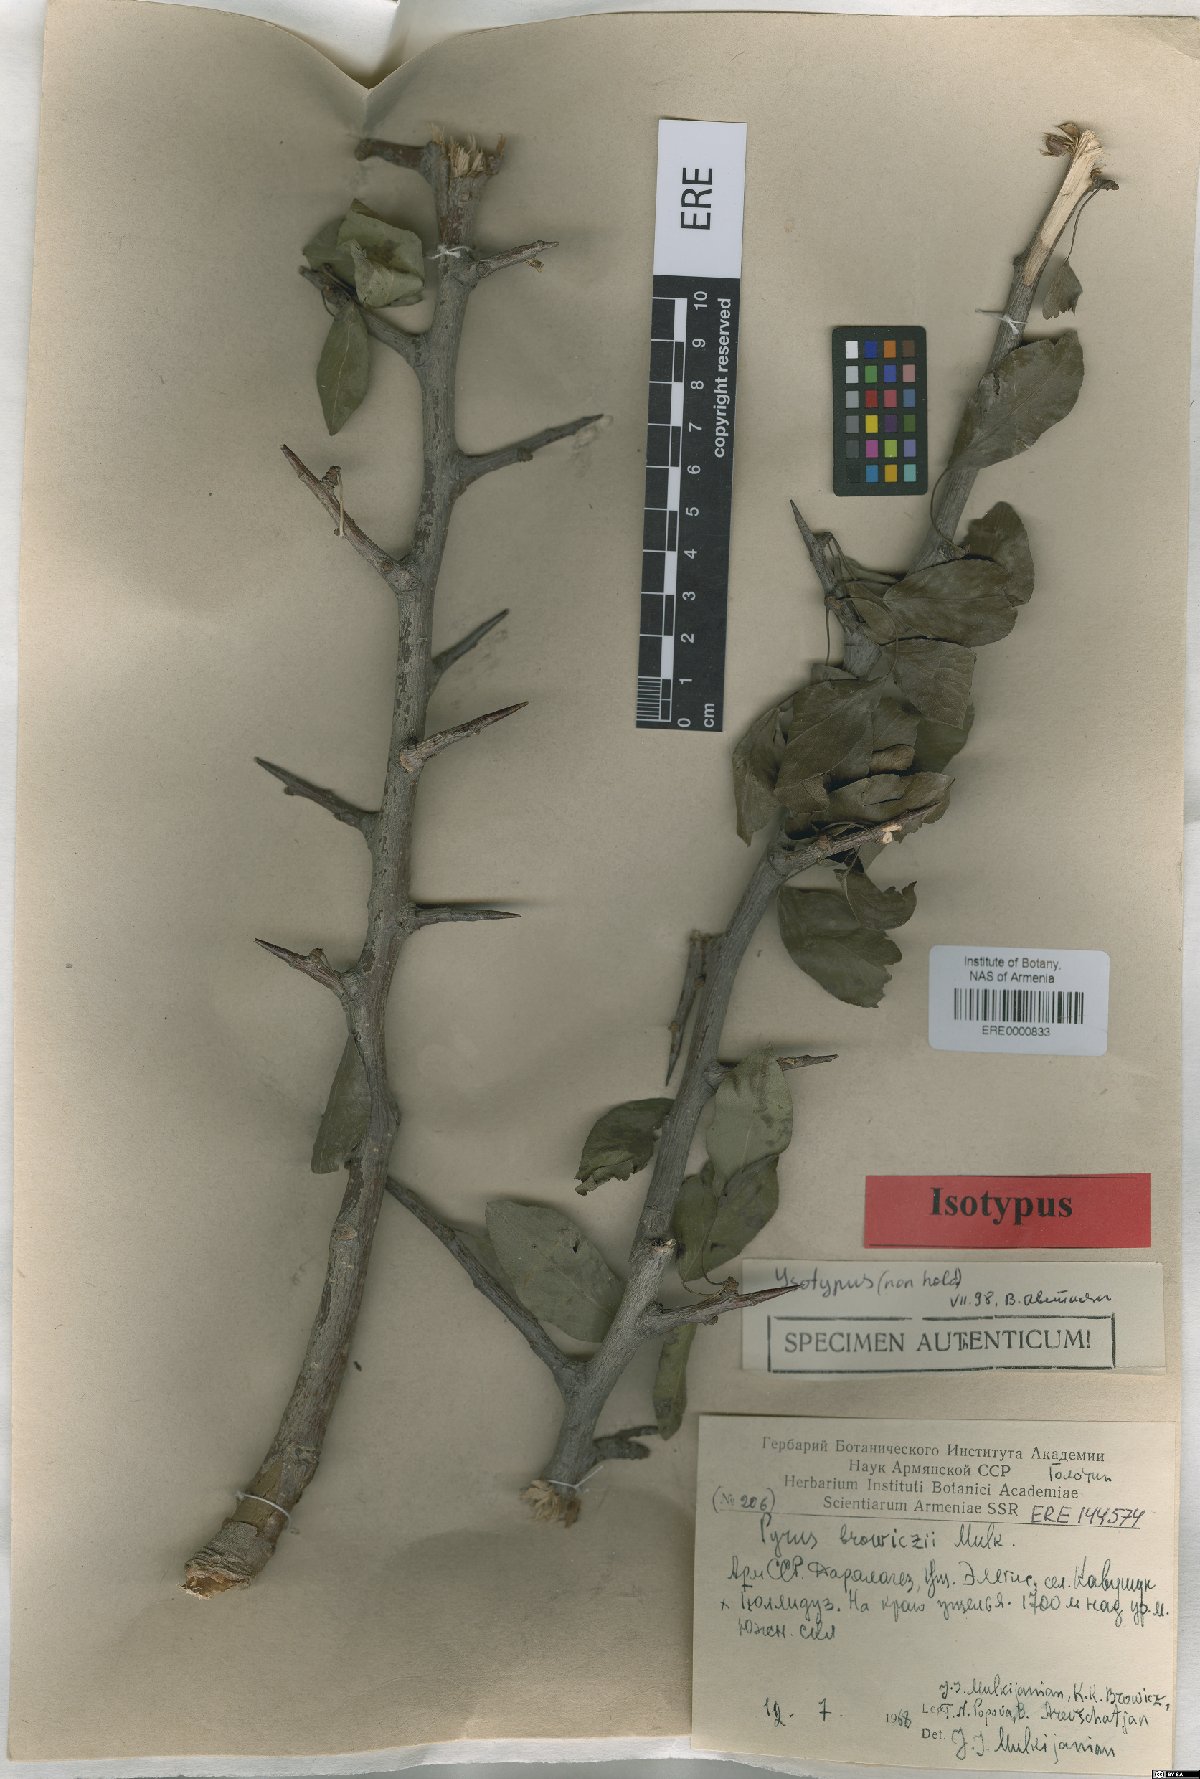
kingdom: Plantae
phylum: Tracheophyta
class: Magnoliopsida
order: Rosales
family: Rosaceae
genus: Pyrus
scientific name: Pyrus browiczii
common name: Brovich's pear
